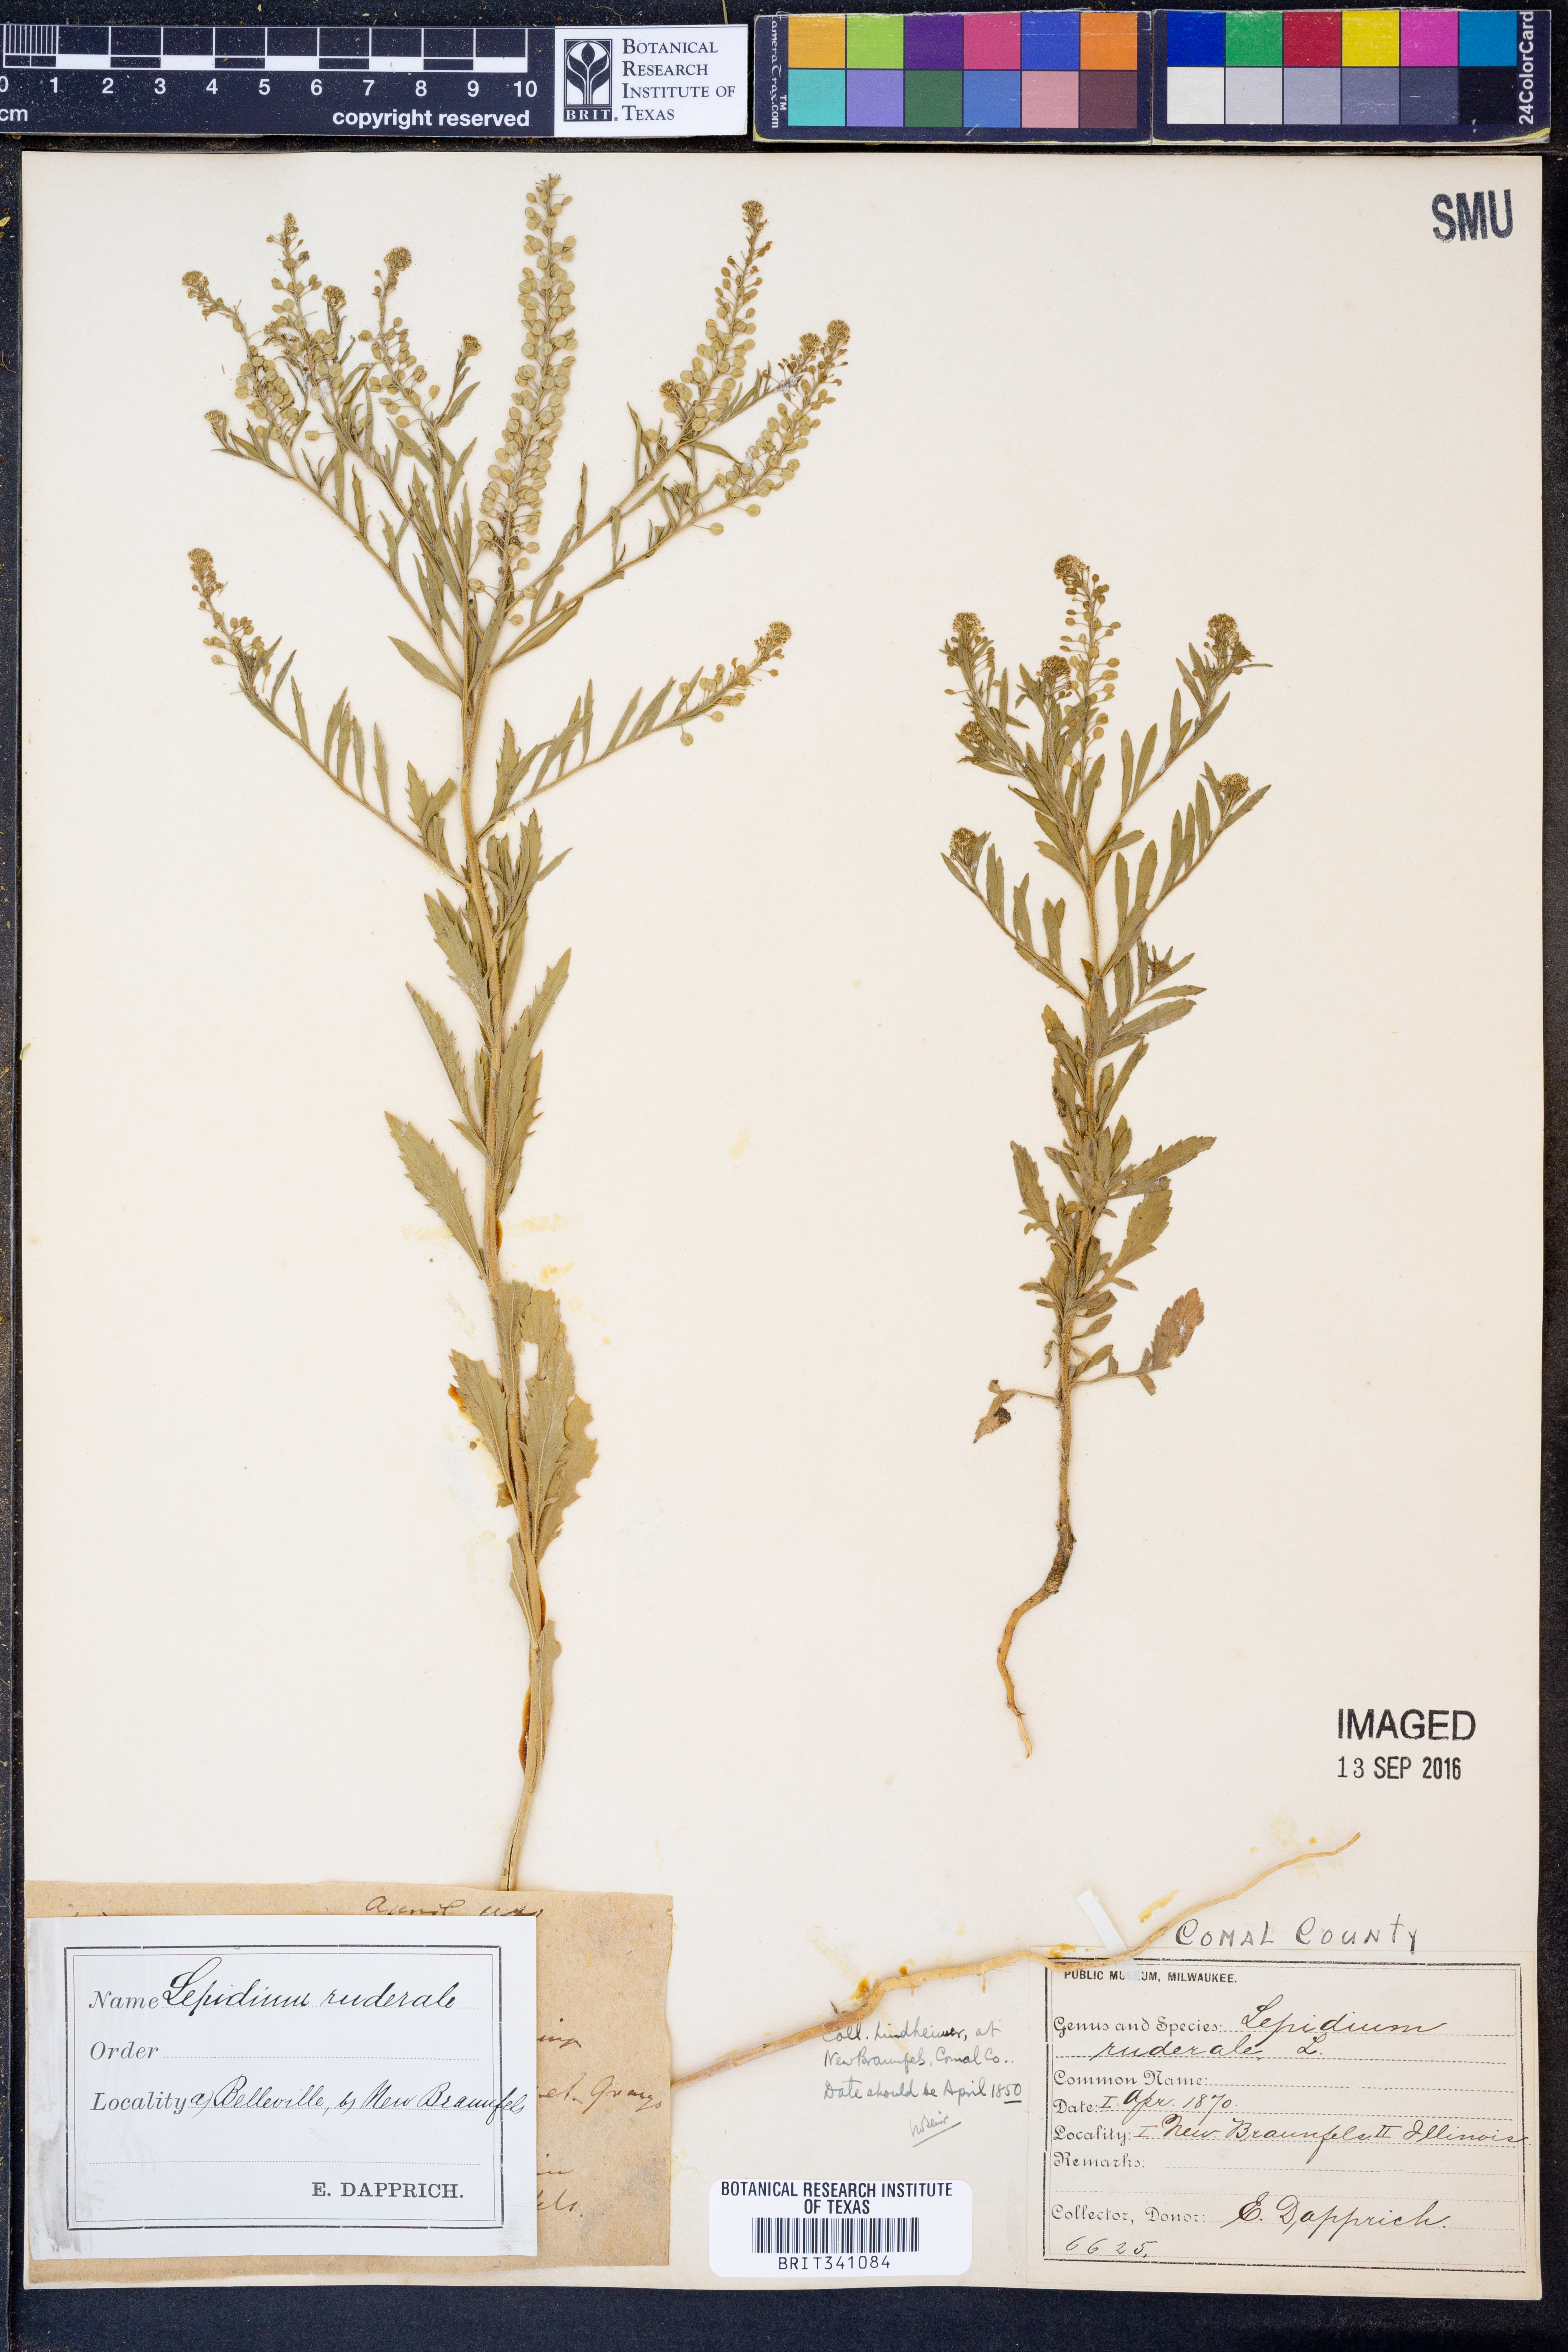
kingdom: Plantae
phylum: Tracheophyta
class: Magnoliopsida
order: Brassicales
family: Brassicaceae
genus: Lepidium
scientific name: Lepidium ruderale
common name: Narrow-leaved pepperwort
